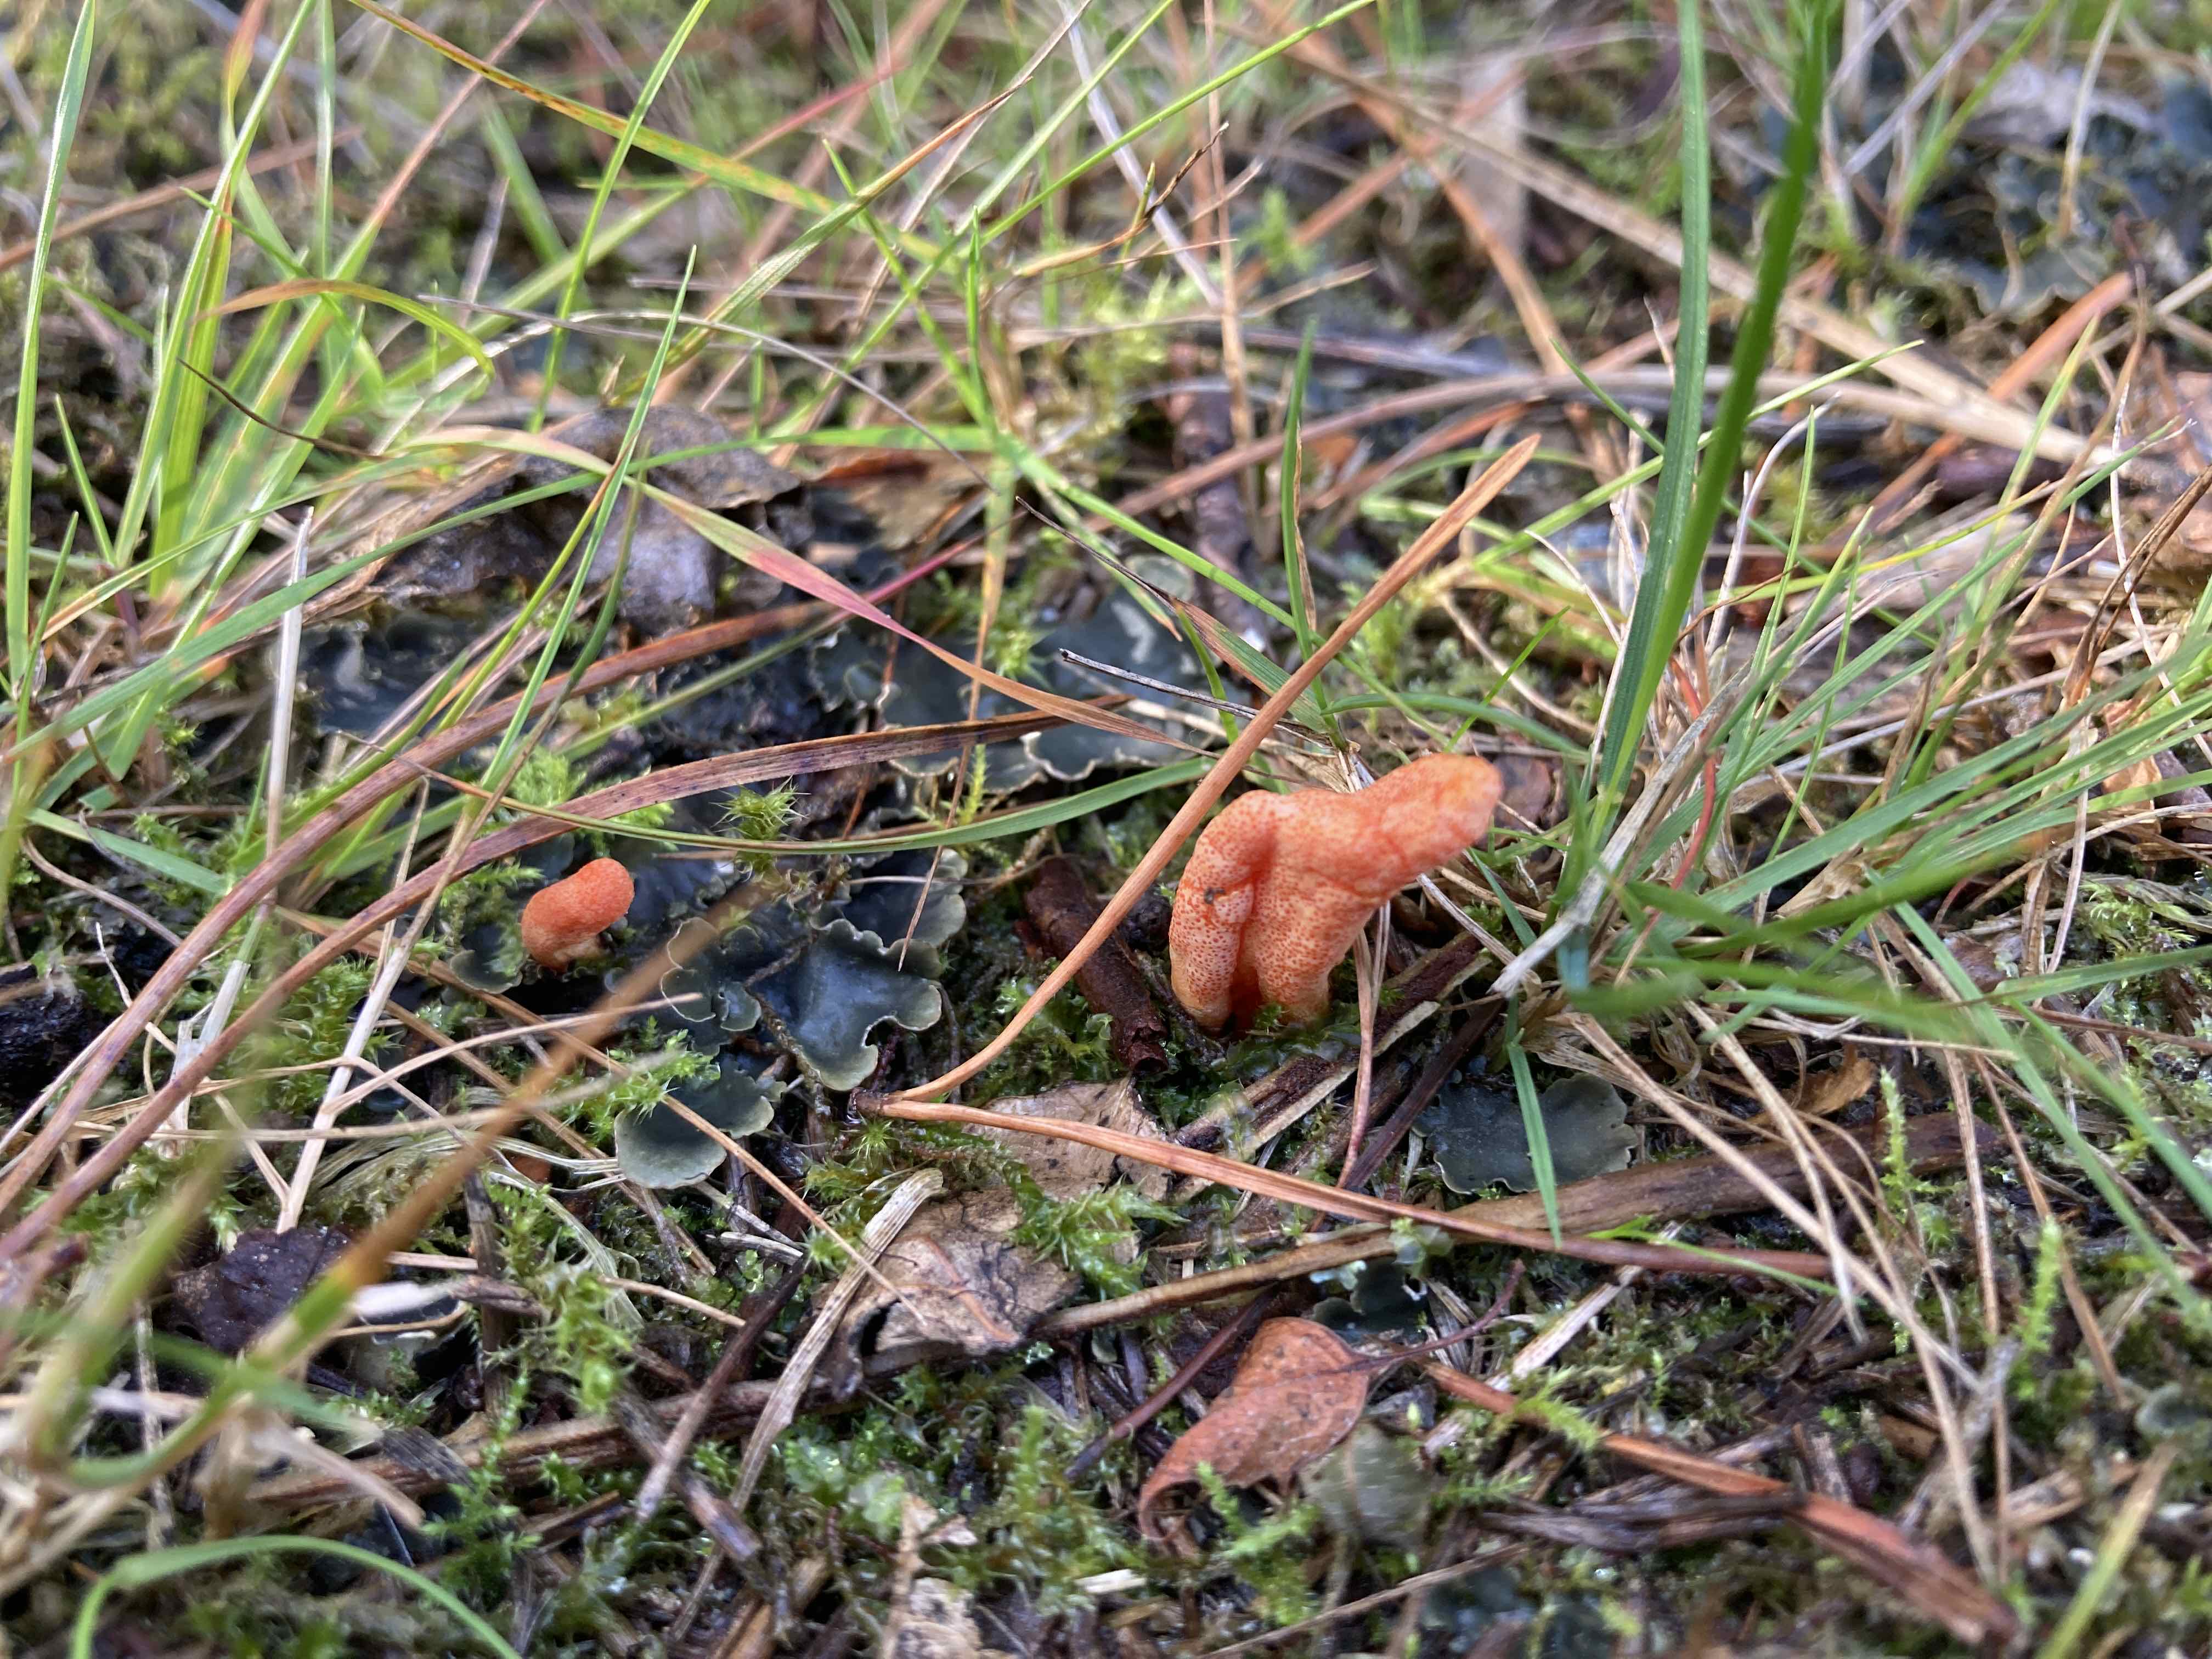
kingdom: Fungi
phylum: Ascomycota
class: Sordariomycetes
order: Hypocreales
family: Cordycipitaceae
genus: Cordyceps
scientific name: Cordyceps militaris
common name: puppe-snyltekølle
